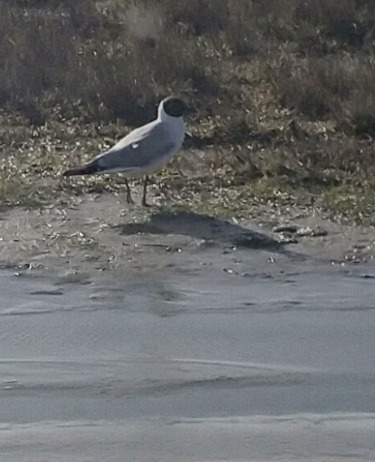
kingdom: Animalia
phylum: Chordata
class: Aves
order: Charadriiformes
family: Laridae
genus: Chroicocephalus
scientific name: Chroicocephalus ridibundus
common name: Hættemåge
